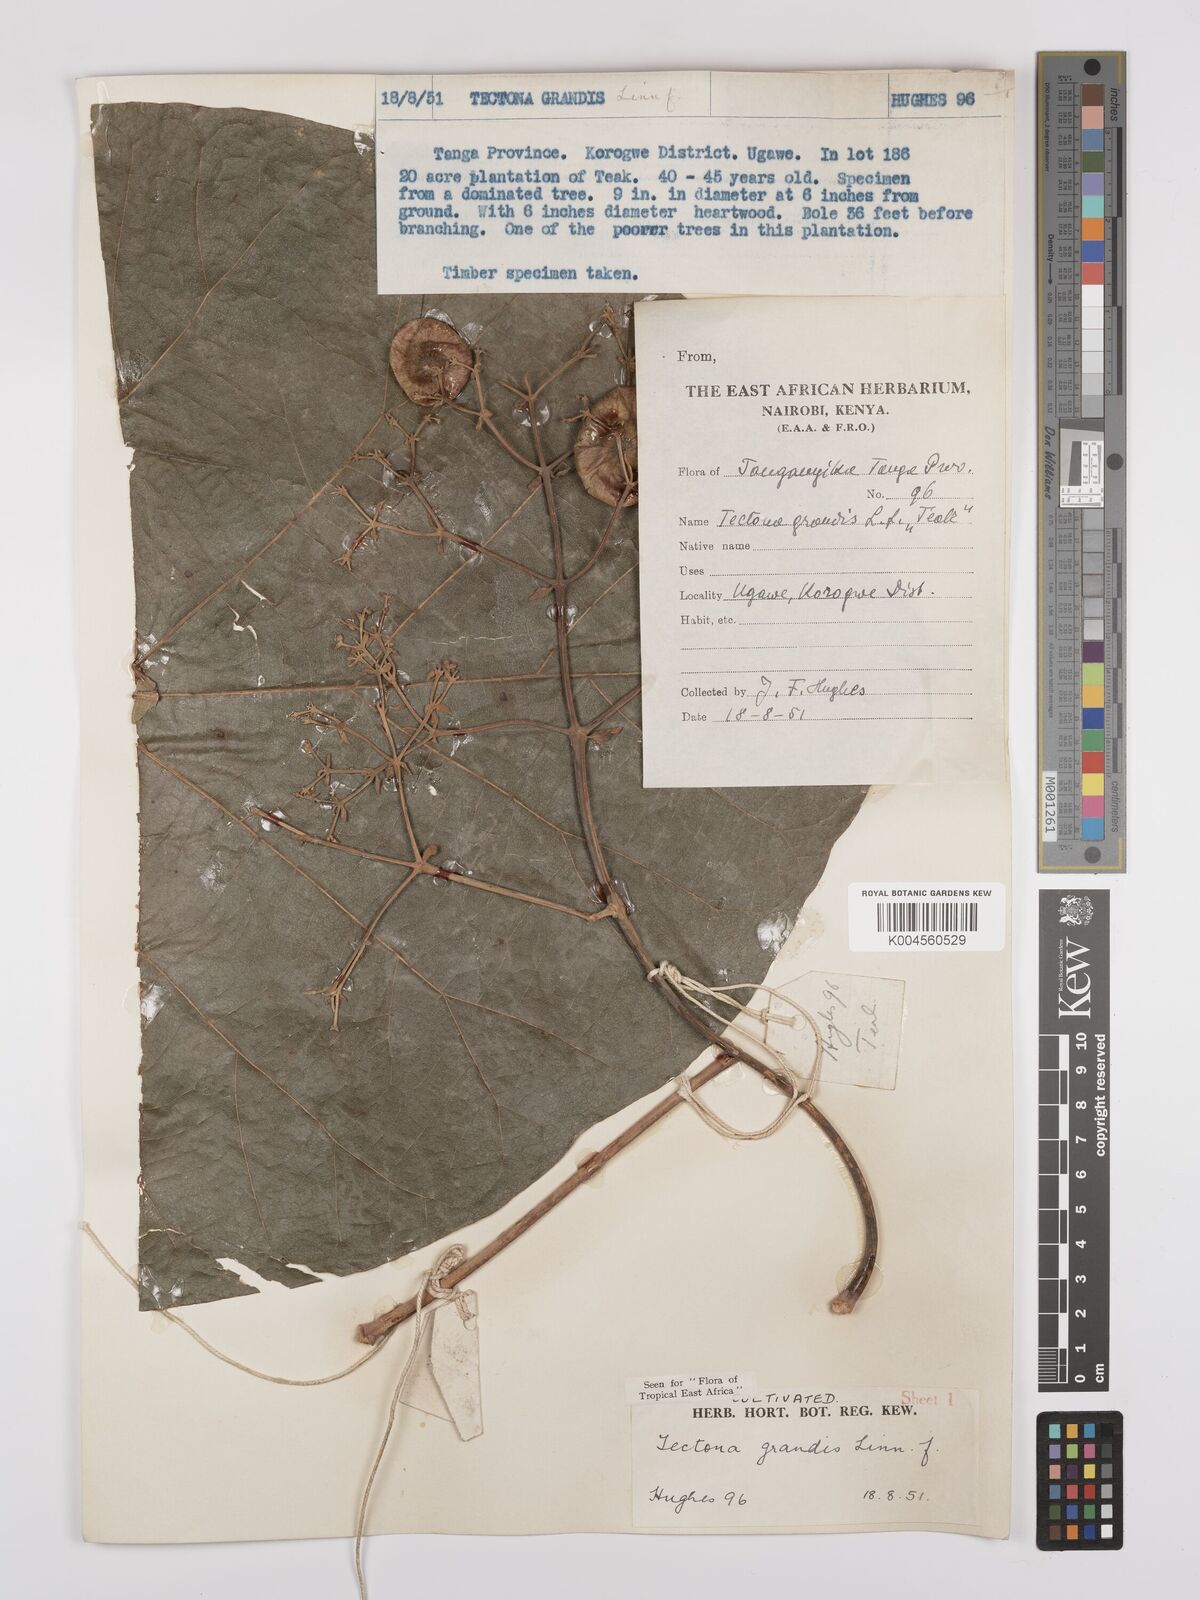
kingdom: Plantae
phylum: Tracheophyta
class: Magnoliopsida
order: Lamiales
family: Lamiaceae
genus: Tectona
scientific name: Tectona grandis
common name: Teak
